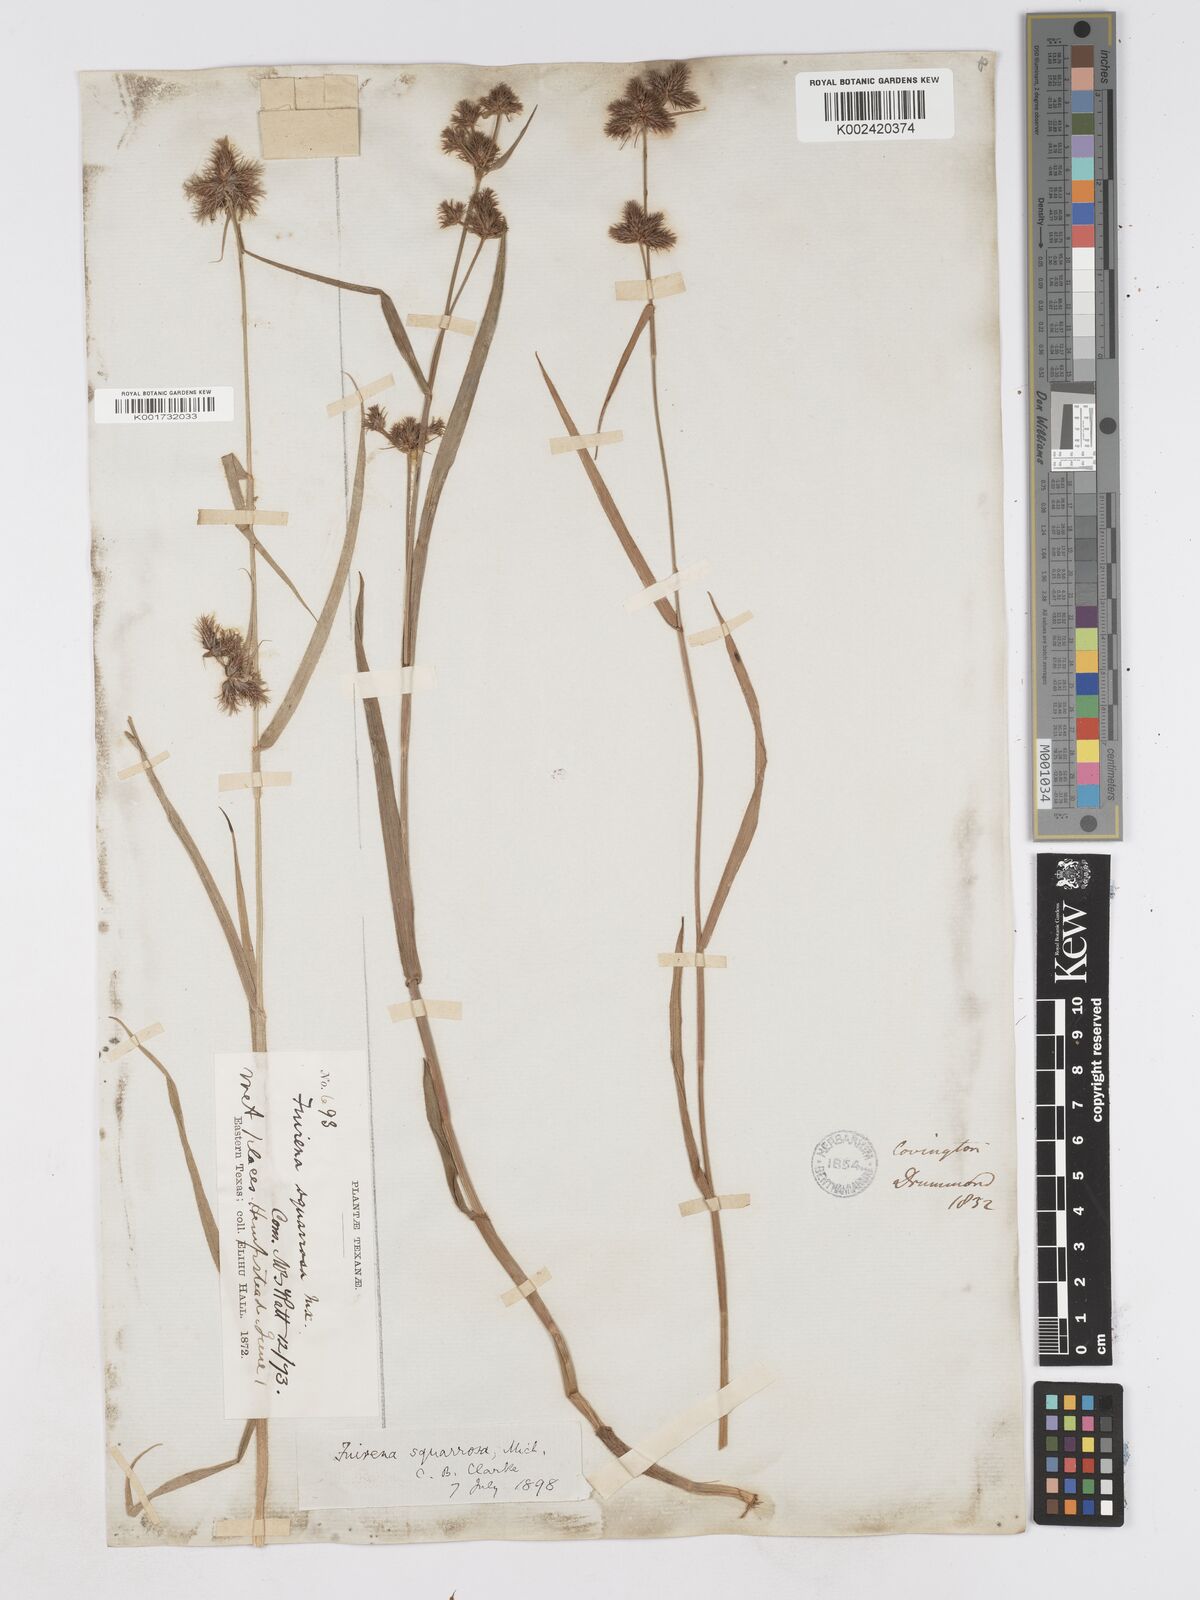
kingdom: Plantae
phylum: Tracheophyta
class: Liliopsida
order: Poales
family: Cyperaceae
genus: Fuirena
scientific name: Fuirena squarrosa
